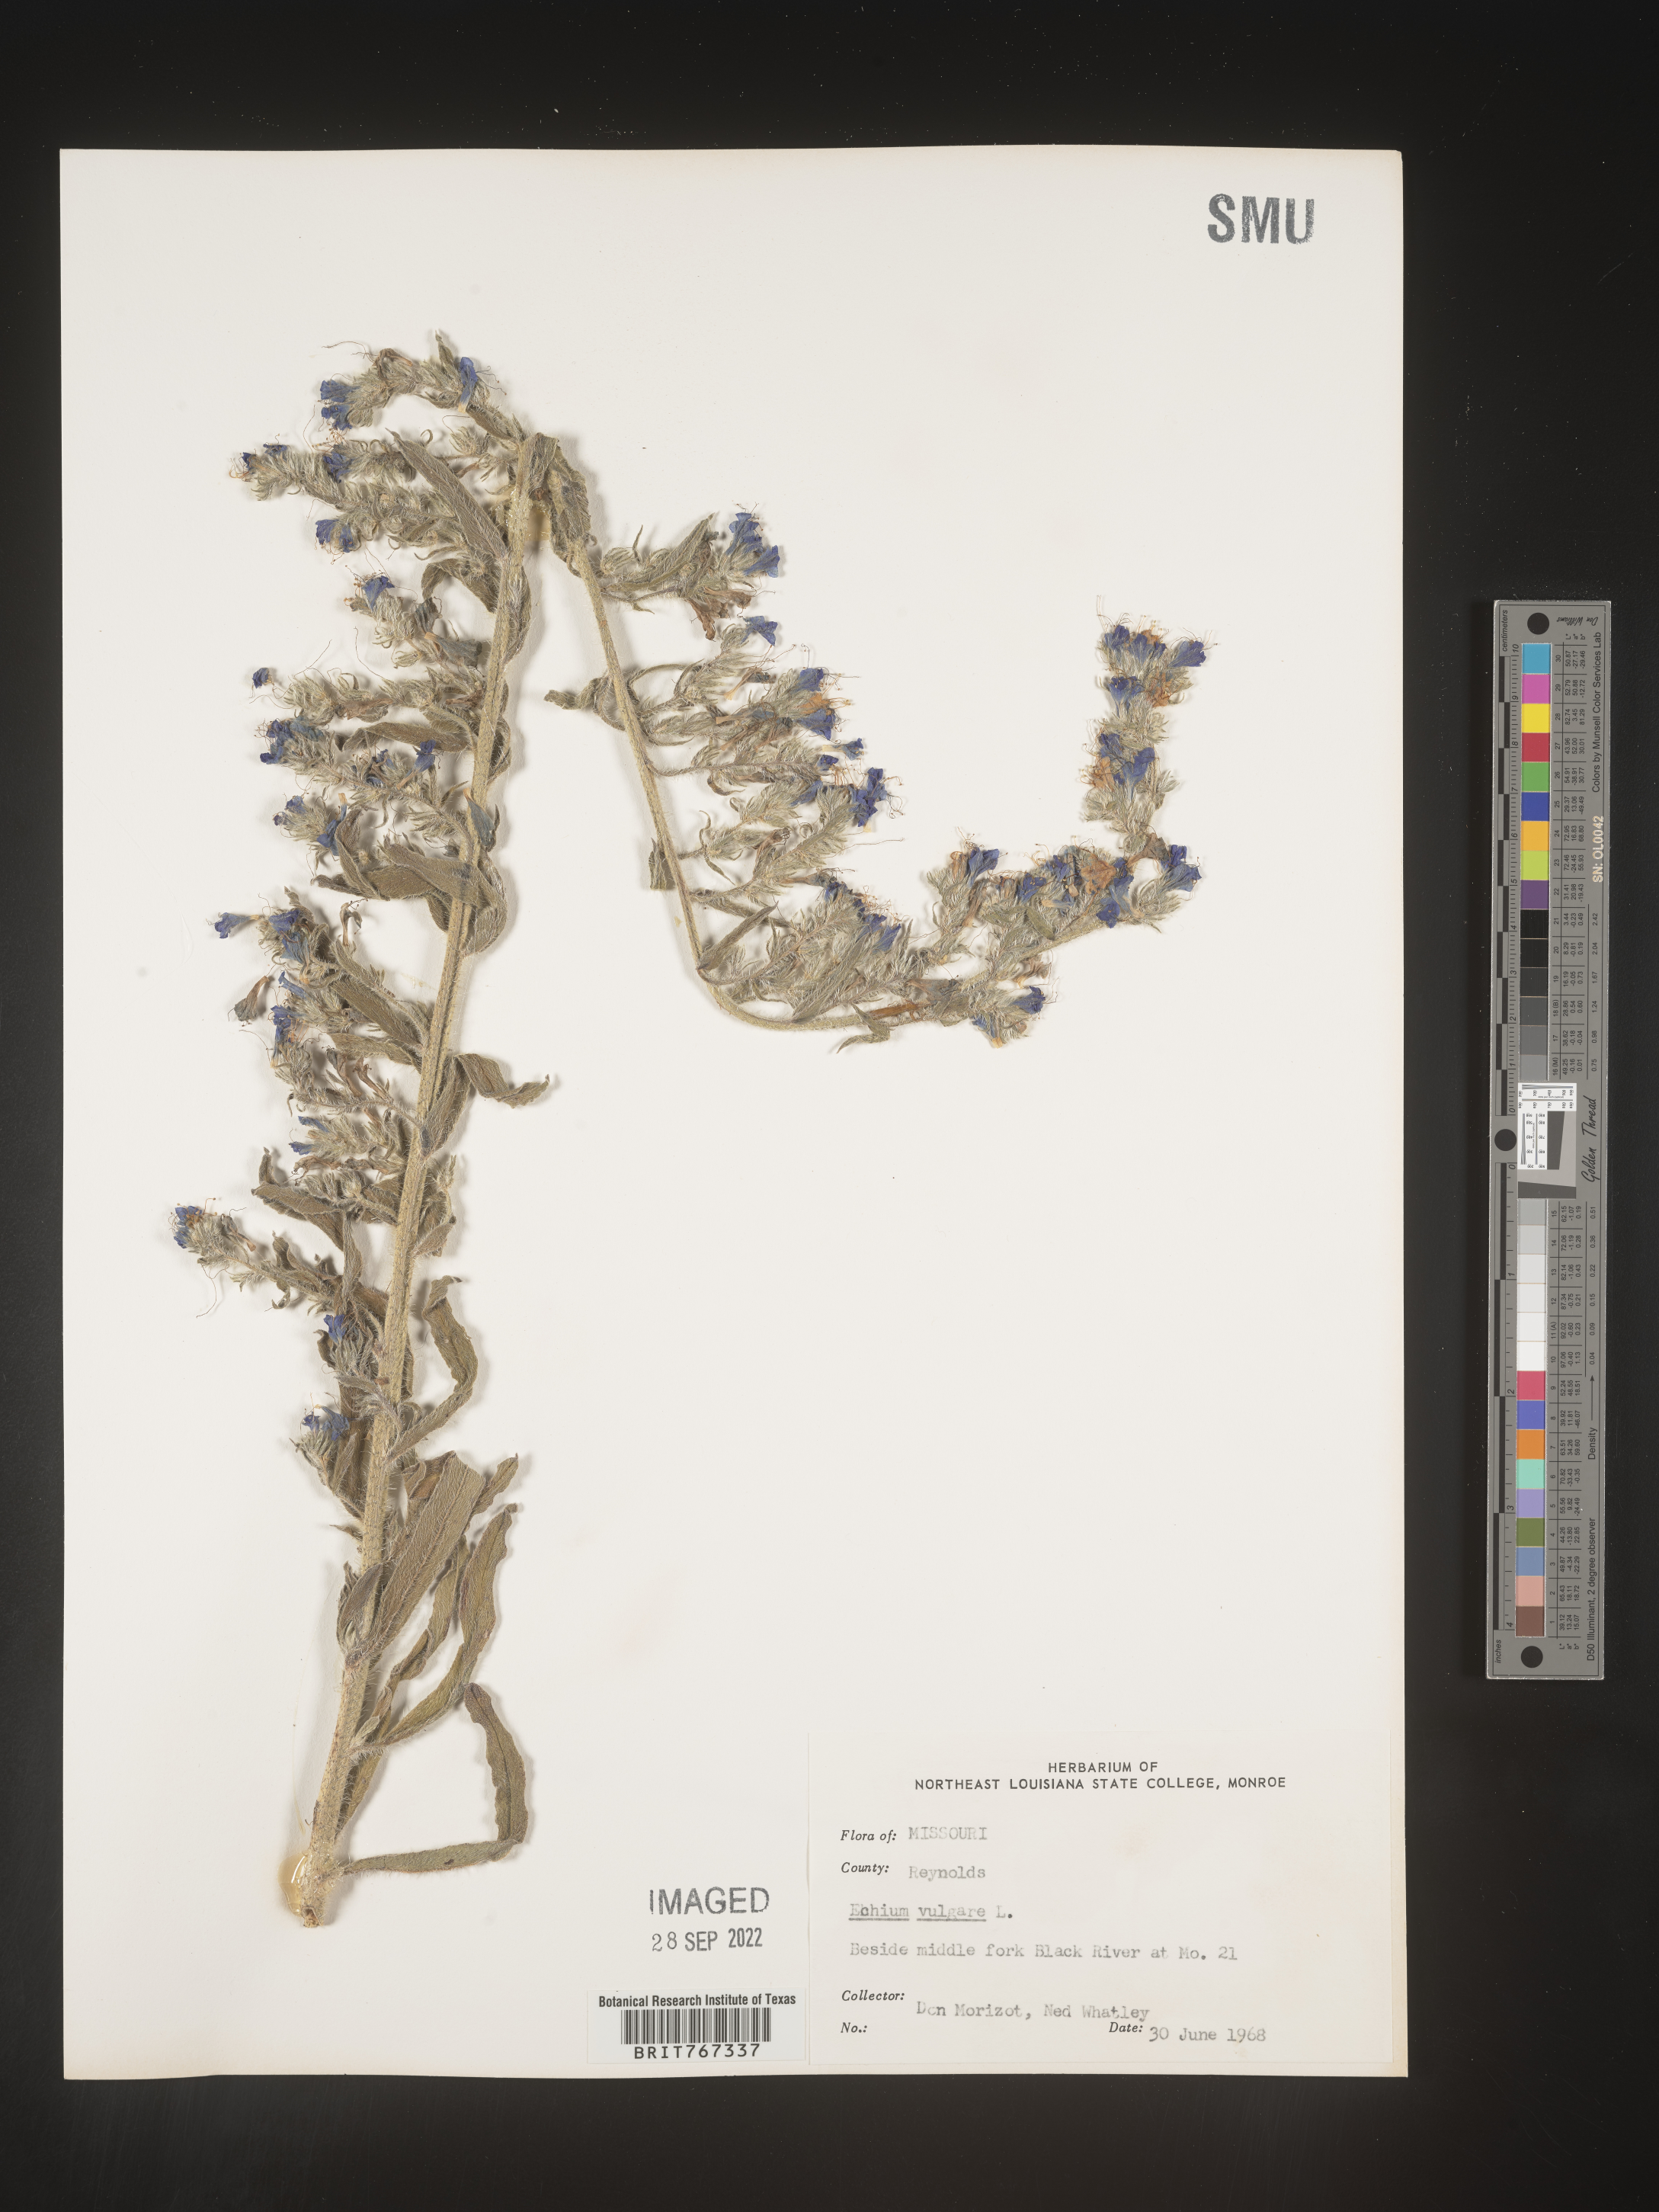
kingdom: Plantae
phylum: Tracheophyta
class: Magnoliopsida
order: Boraginales
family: Boraginaceae
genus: Echium
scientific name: Echium
